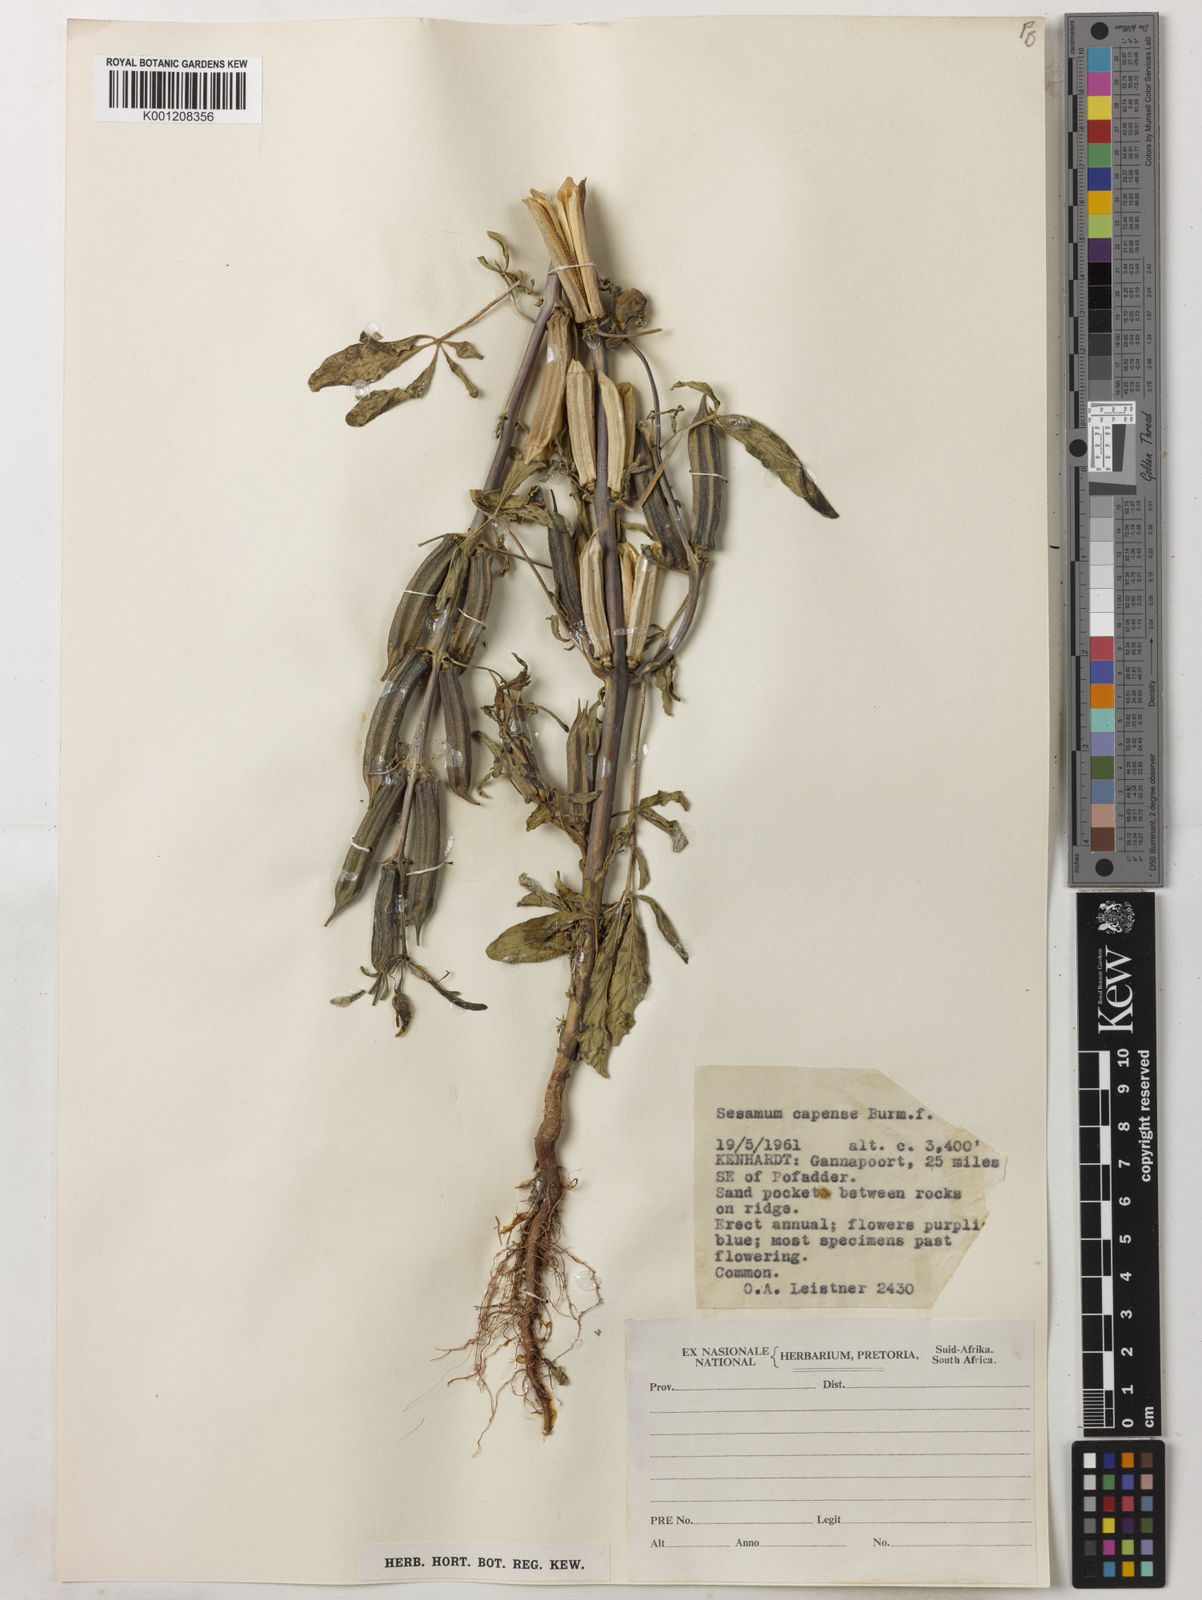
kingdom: Plantae
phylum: Tracheophyta
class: Magnoliopsida
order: Lamiales
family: Pedaliaceae
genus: Sesamum
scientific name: Sesamum capense
